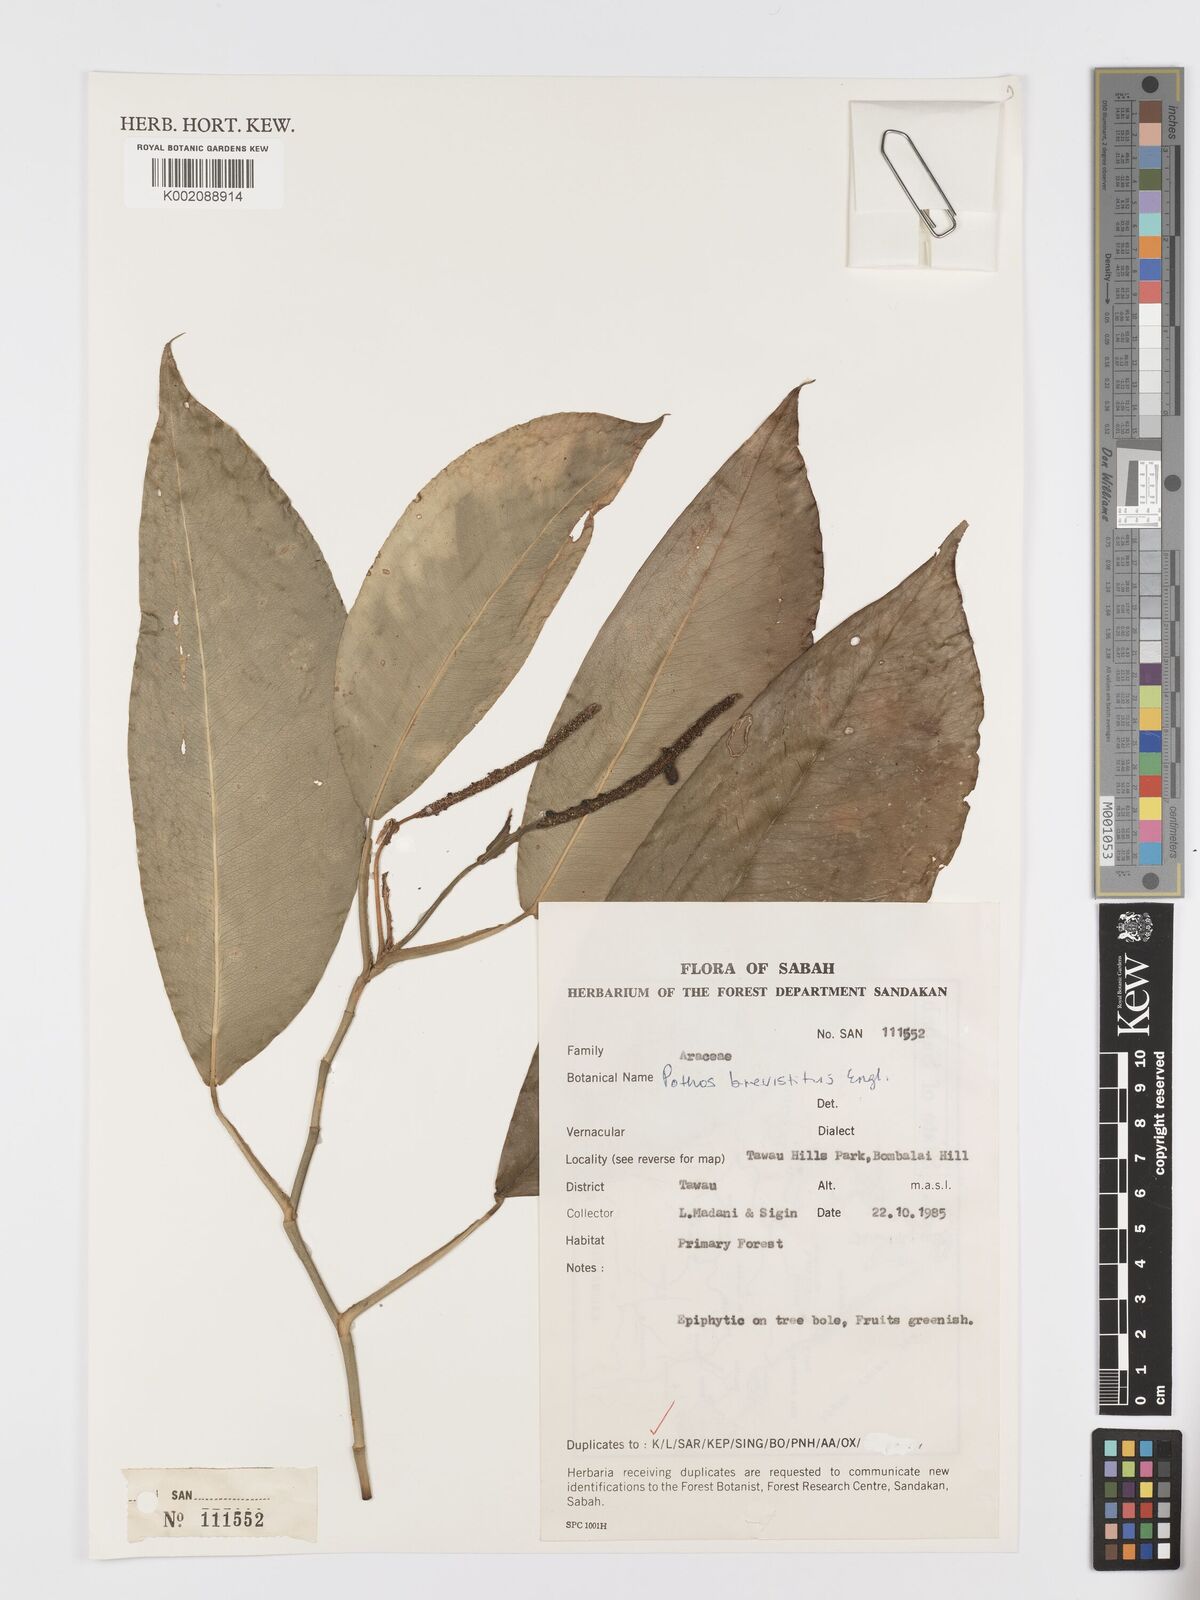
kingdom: Plantae
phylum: Tracheophyta
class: Liliopsida
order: Alismatales
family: Araceae
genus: Pothos
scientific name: Pothos brevistylus
